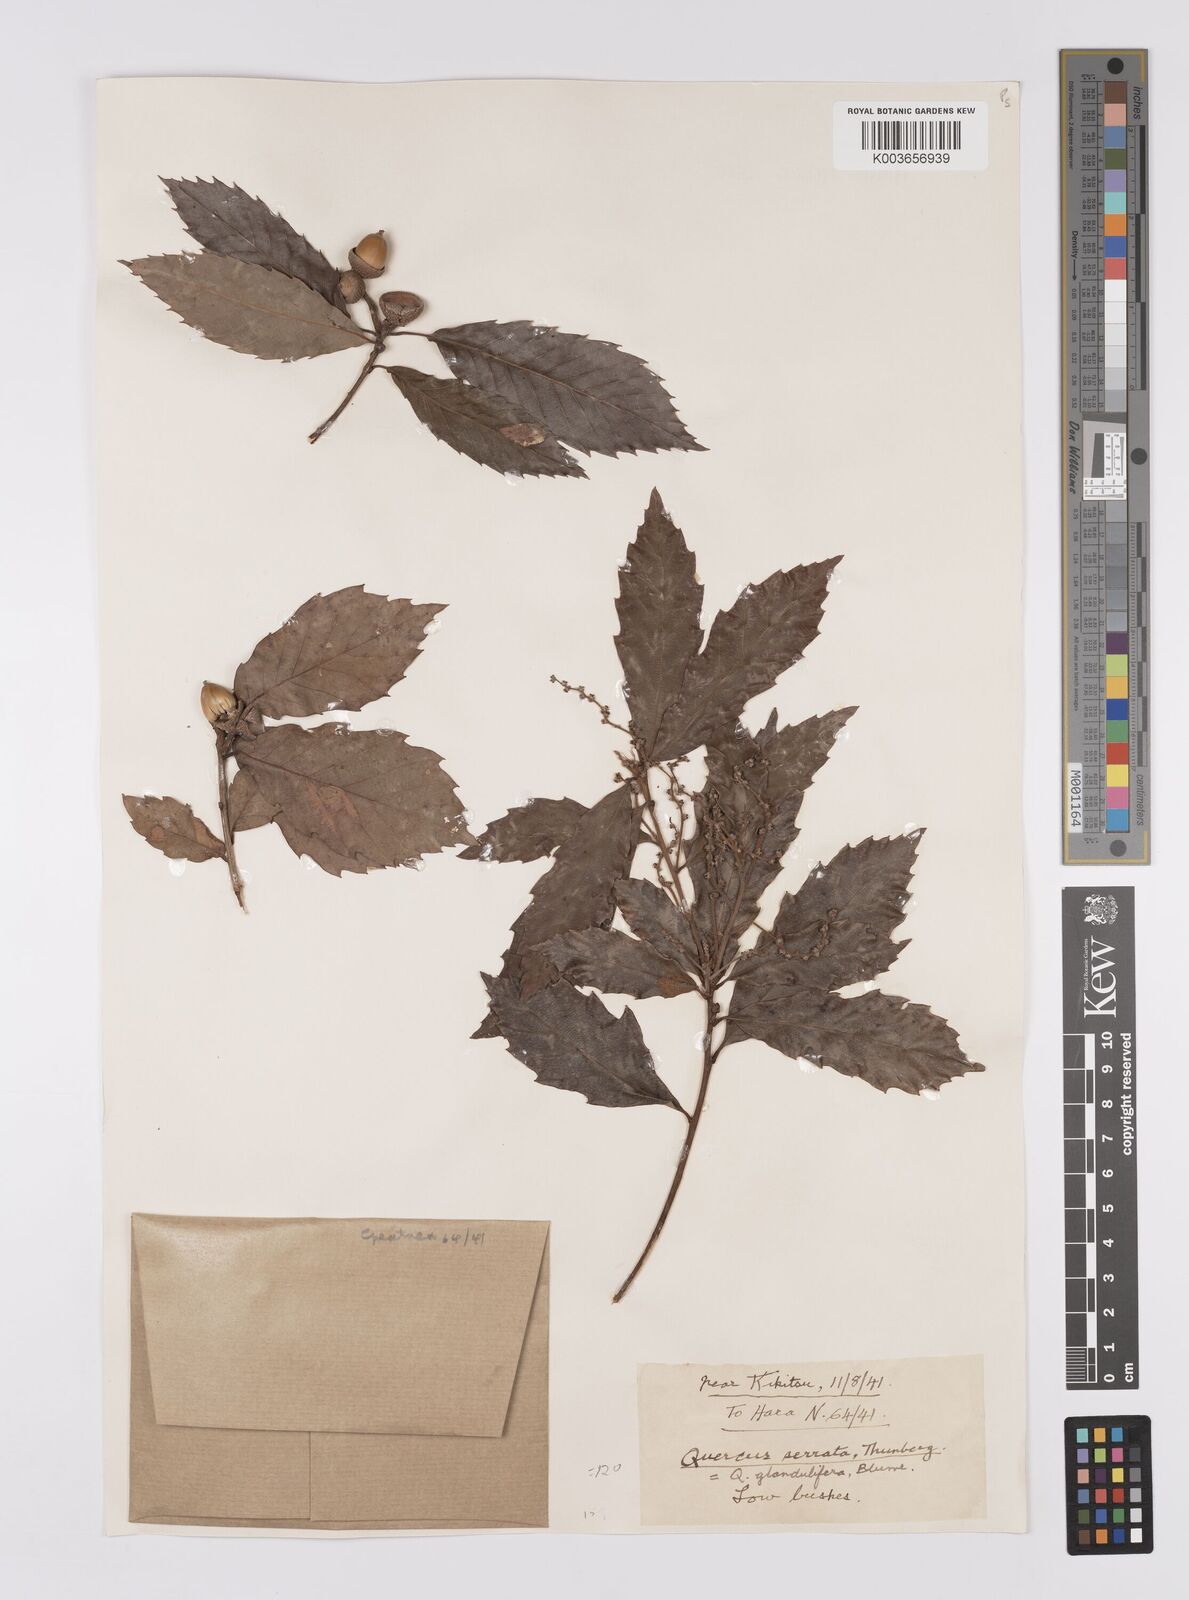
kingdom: Plantae
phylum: Tracheophyta
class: Magnoliopsida
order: Fagales
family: Fagaceae
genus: Quercus
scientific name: Quercus serrata
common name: Bao li
